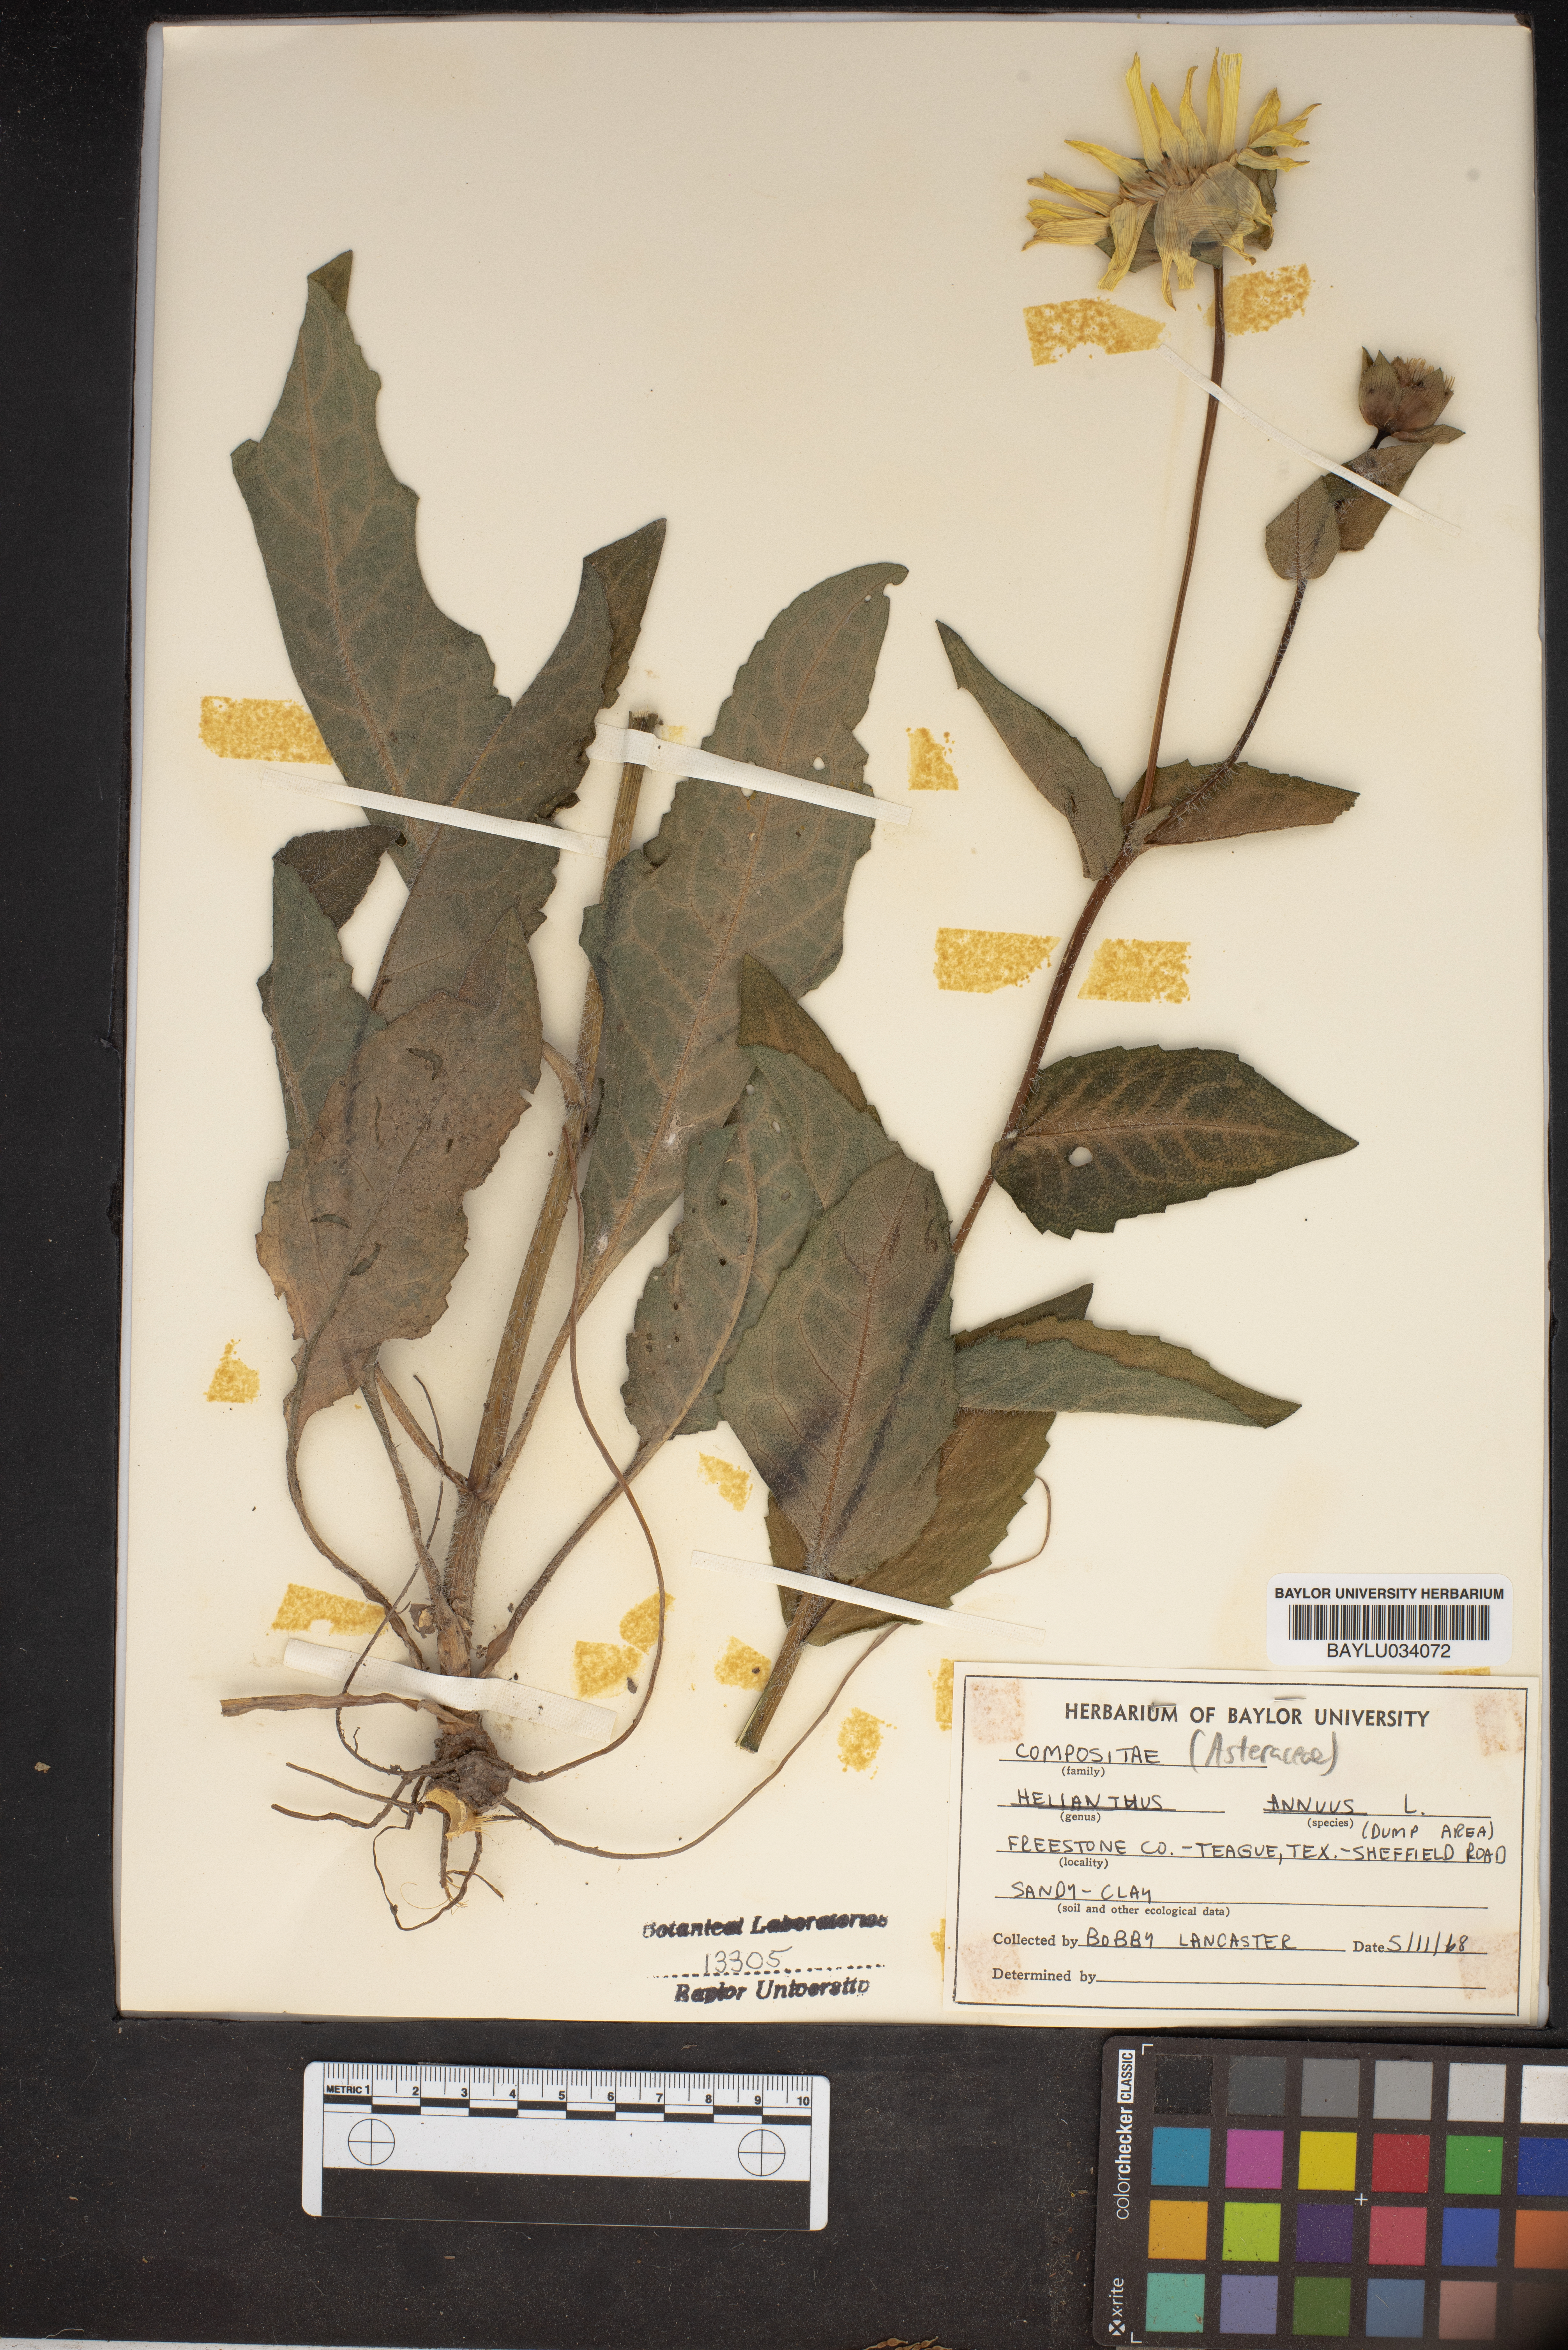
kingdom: Plantae
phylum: Tracheophyta
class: Magnoliopsida
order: Asterales
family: Asteraceae
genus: Helianthus
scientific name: Helianthus annuus
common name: Sunflower
